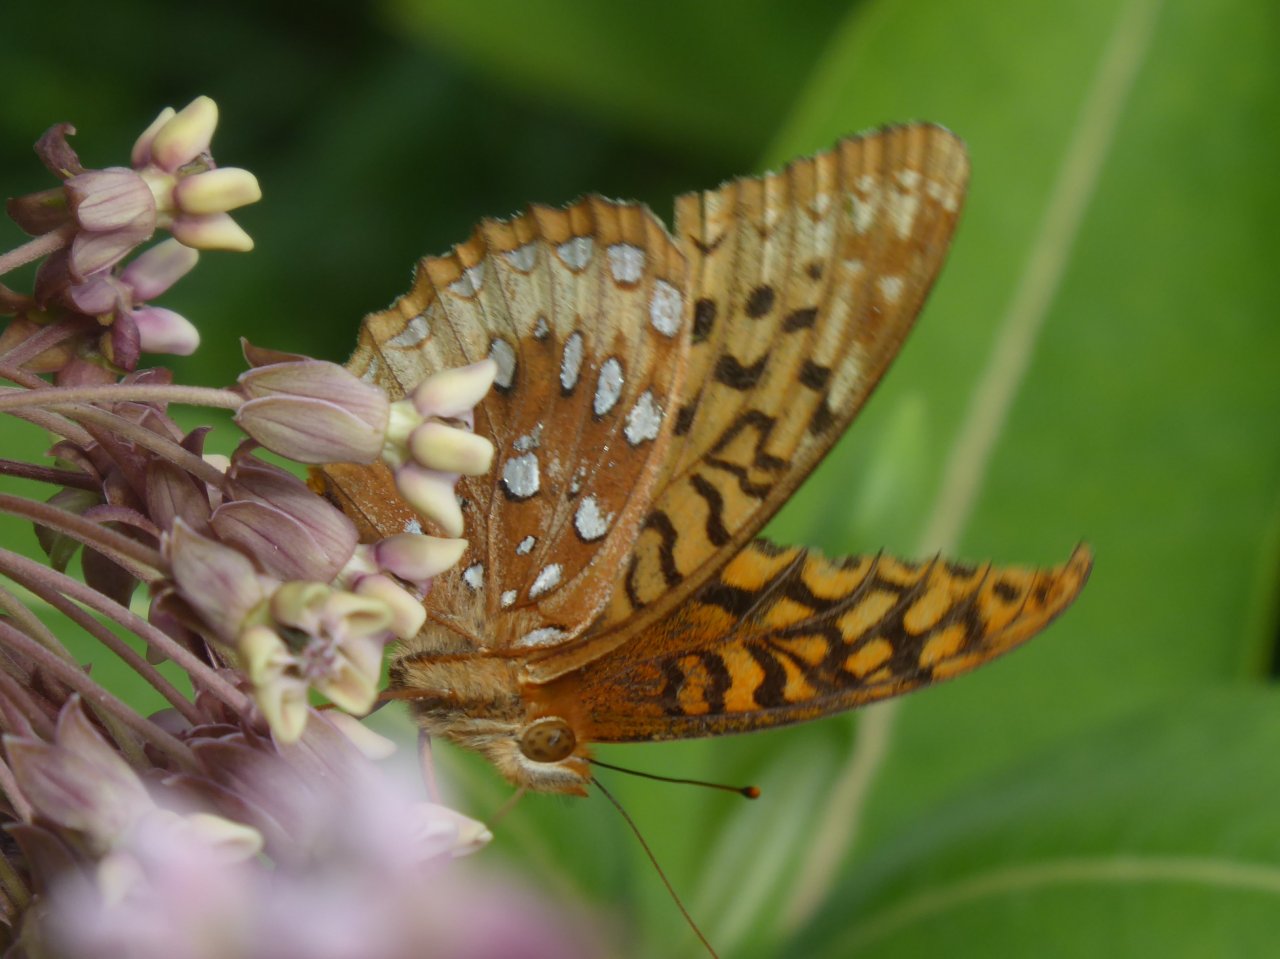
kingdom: Animalia
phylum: Arthropoda
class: Insecta
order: Lepidoptera
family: Nymphalidae
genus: Speyeria
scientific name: Speyeria cybele
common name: Great Spangled Fritillary
